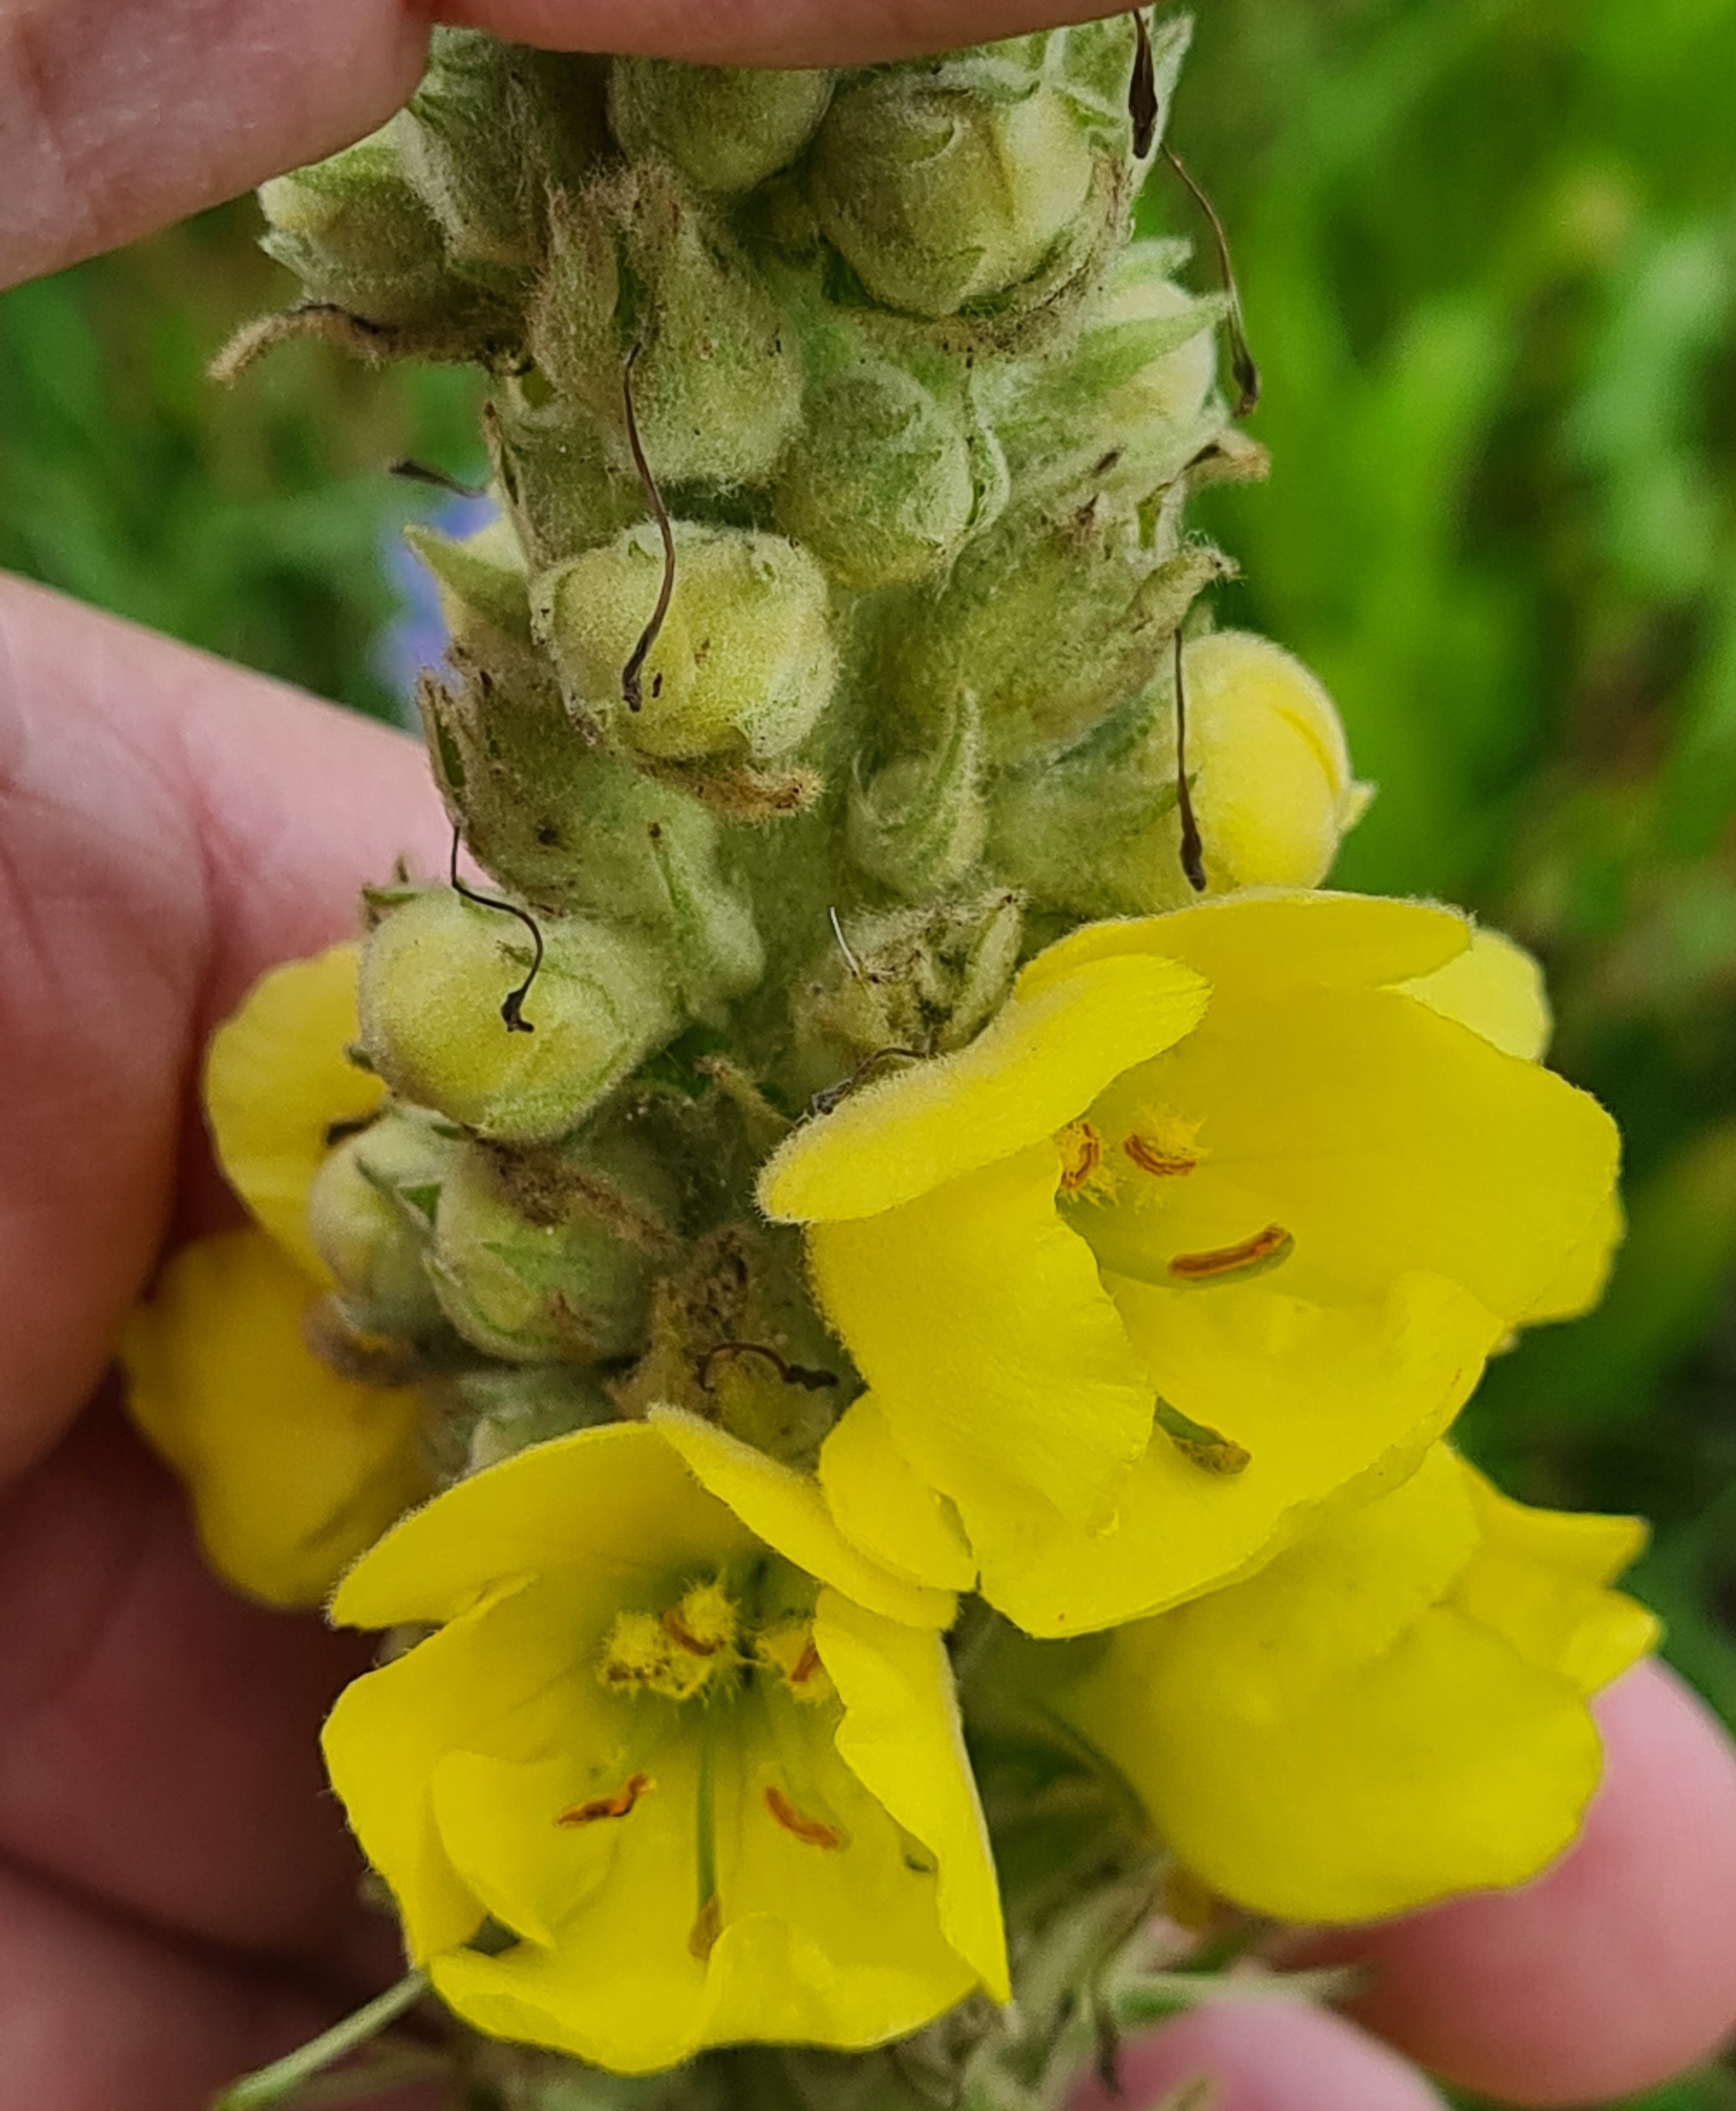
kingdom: Plantae
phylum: Tracheophyta
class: Magnoliopsida
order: Lamiales
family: Scrophulariaceae
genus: Verbascum
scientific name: Verbascum densiflorum
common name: Uldbladet kongelys
